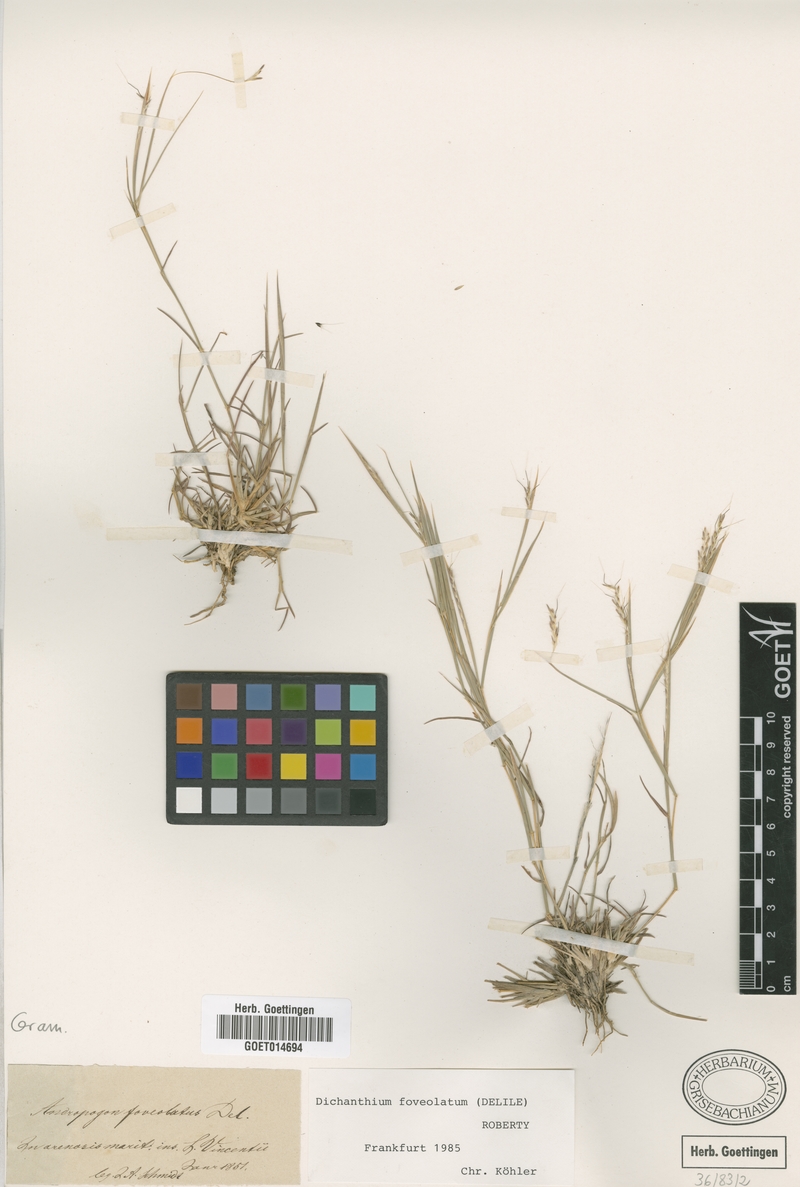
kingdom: Plantae
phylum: Tracheophyta
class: Liliopsida
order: Poales
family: Poaceae
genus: Dichanthium
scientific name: Dichanthium foveolatum
